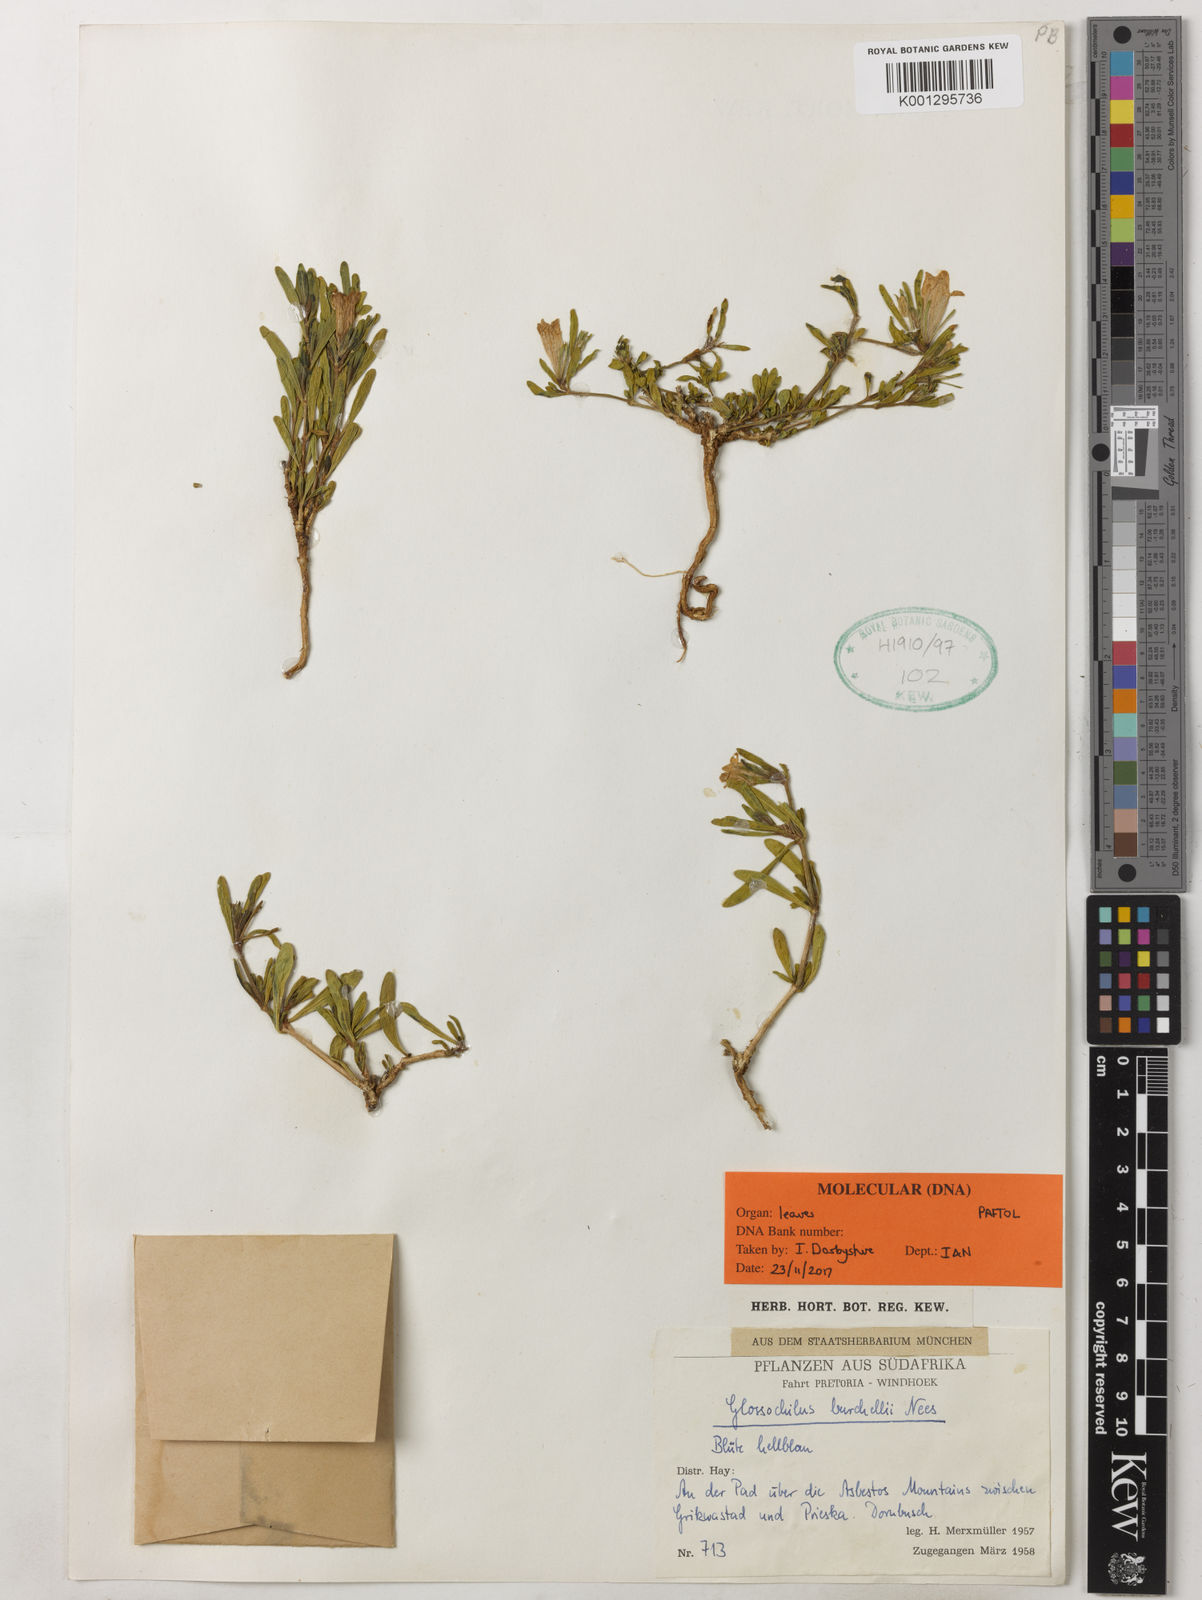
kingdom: Plantae
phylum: Tracheophyta
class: Magnoliopsida
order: Lamiales
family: Acanthaceae
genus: Glossochilus
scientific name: Glossochilus burchellii
